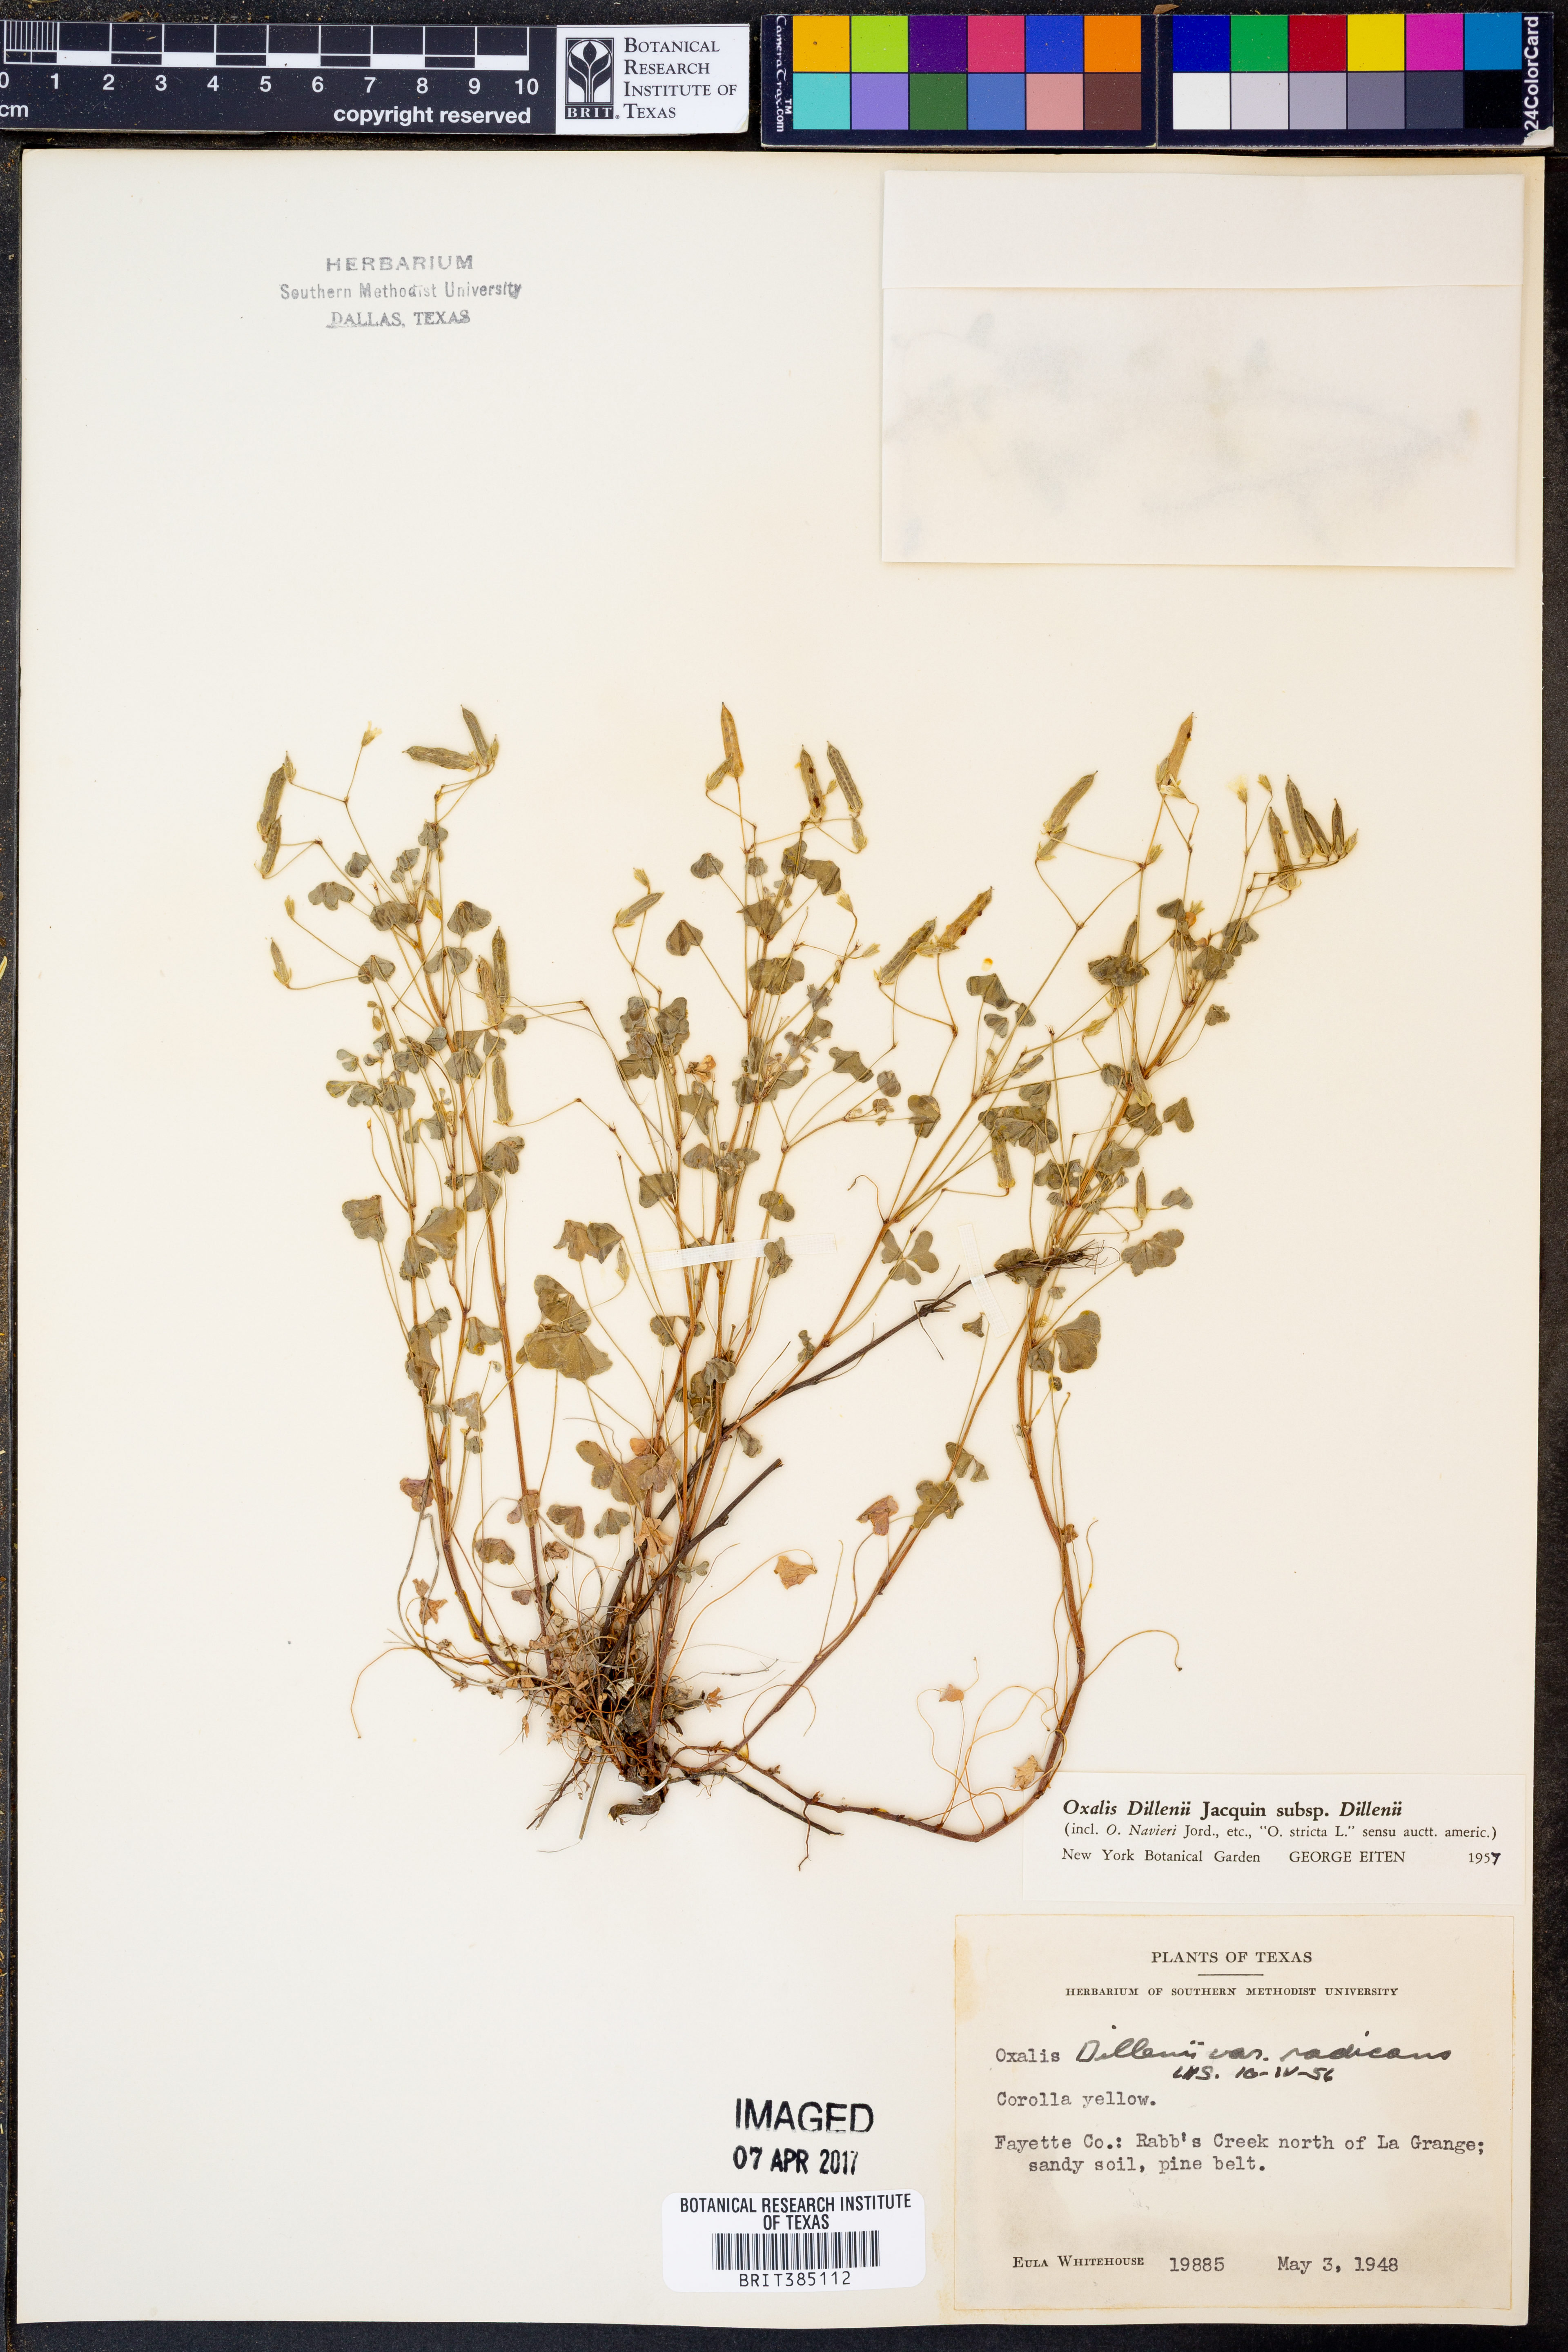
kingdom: Plantae
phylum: Tracheophyta
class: Magnoliopsida
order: Oxalidales
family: Oxalidaceae
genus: Oxalis
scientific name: Oxalis dillenii
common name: Sussex yellow-sorrel
